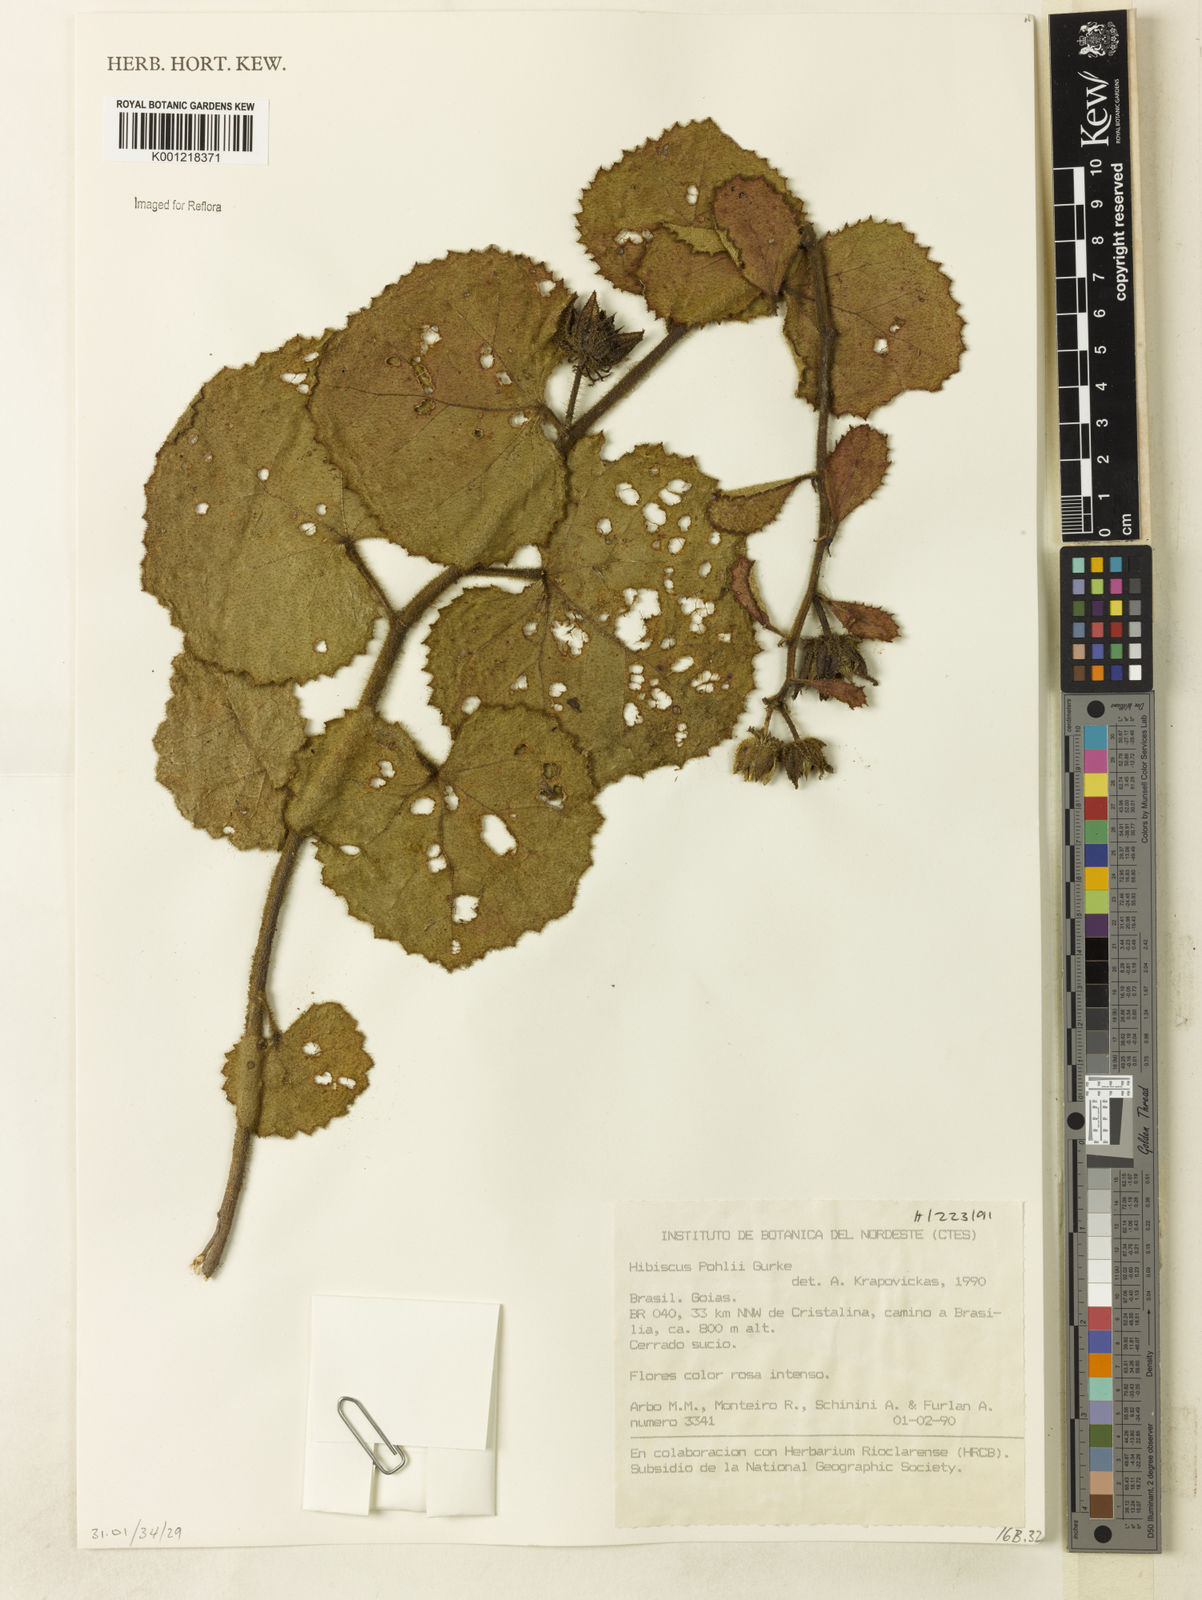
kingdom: Plantae
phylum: Tracheophyta
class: Magnoliopsida
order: Malvales
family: Malvaceae
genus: Hibiscus
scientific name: Hibiscus
